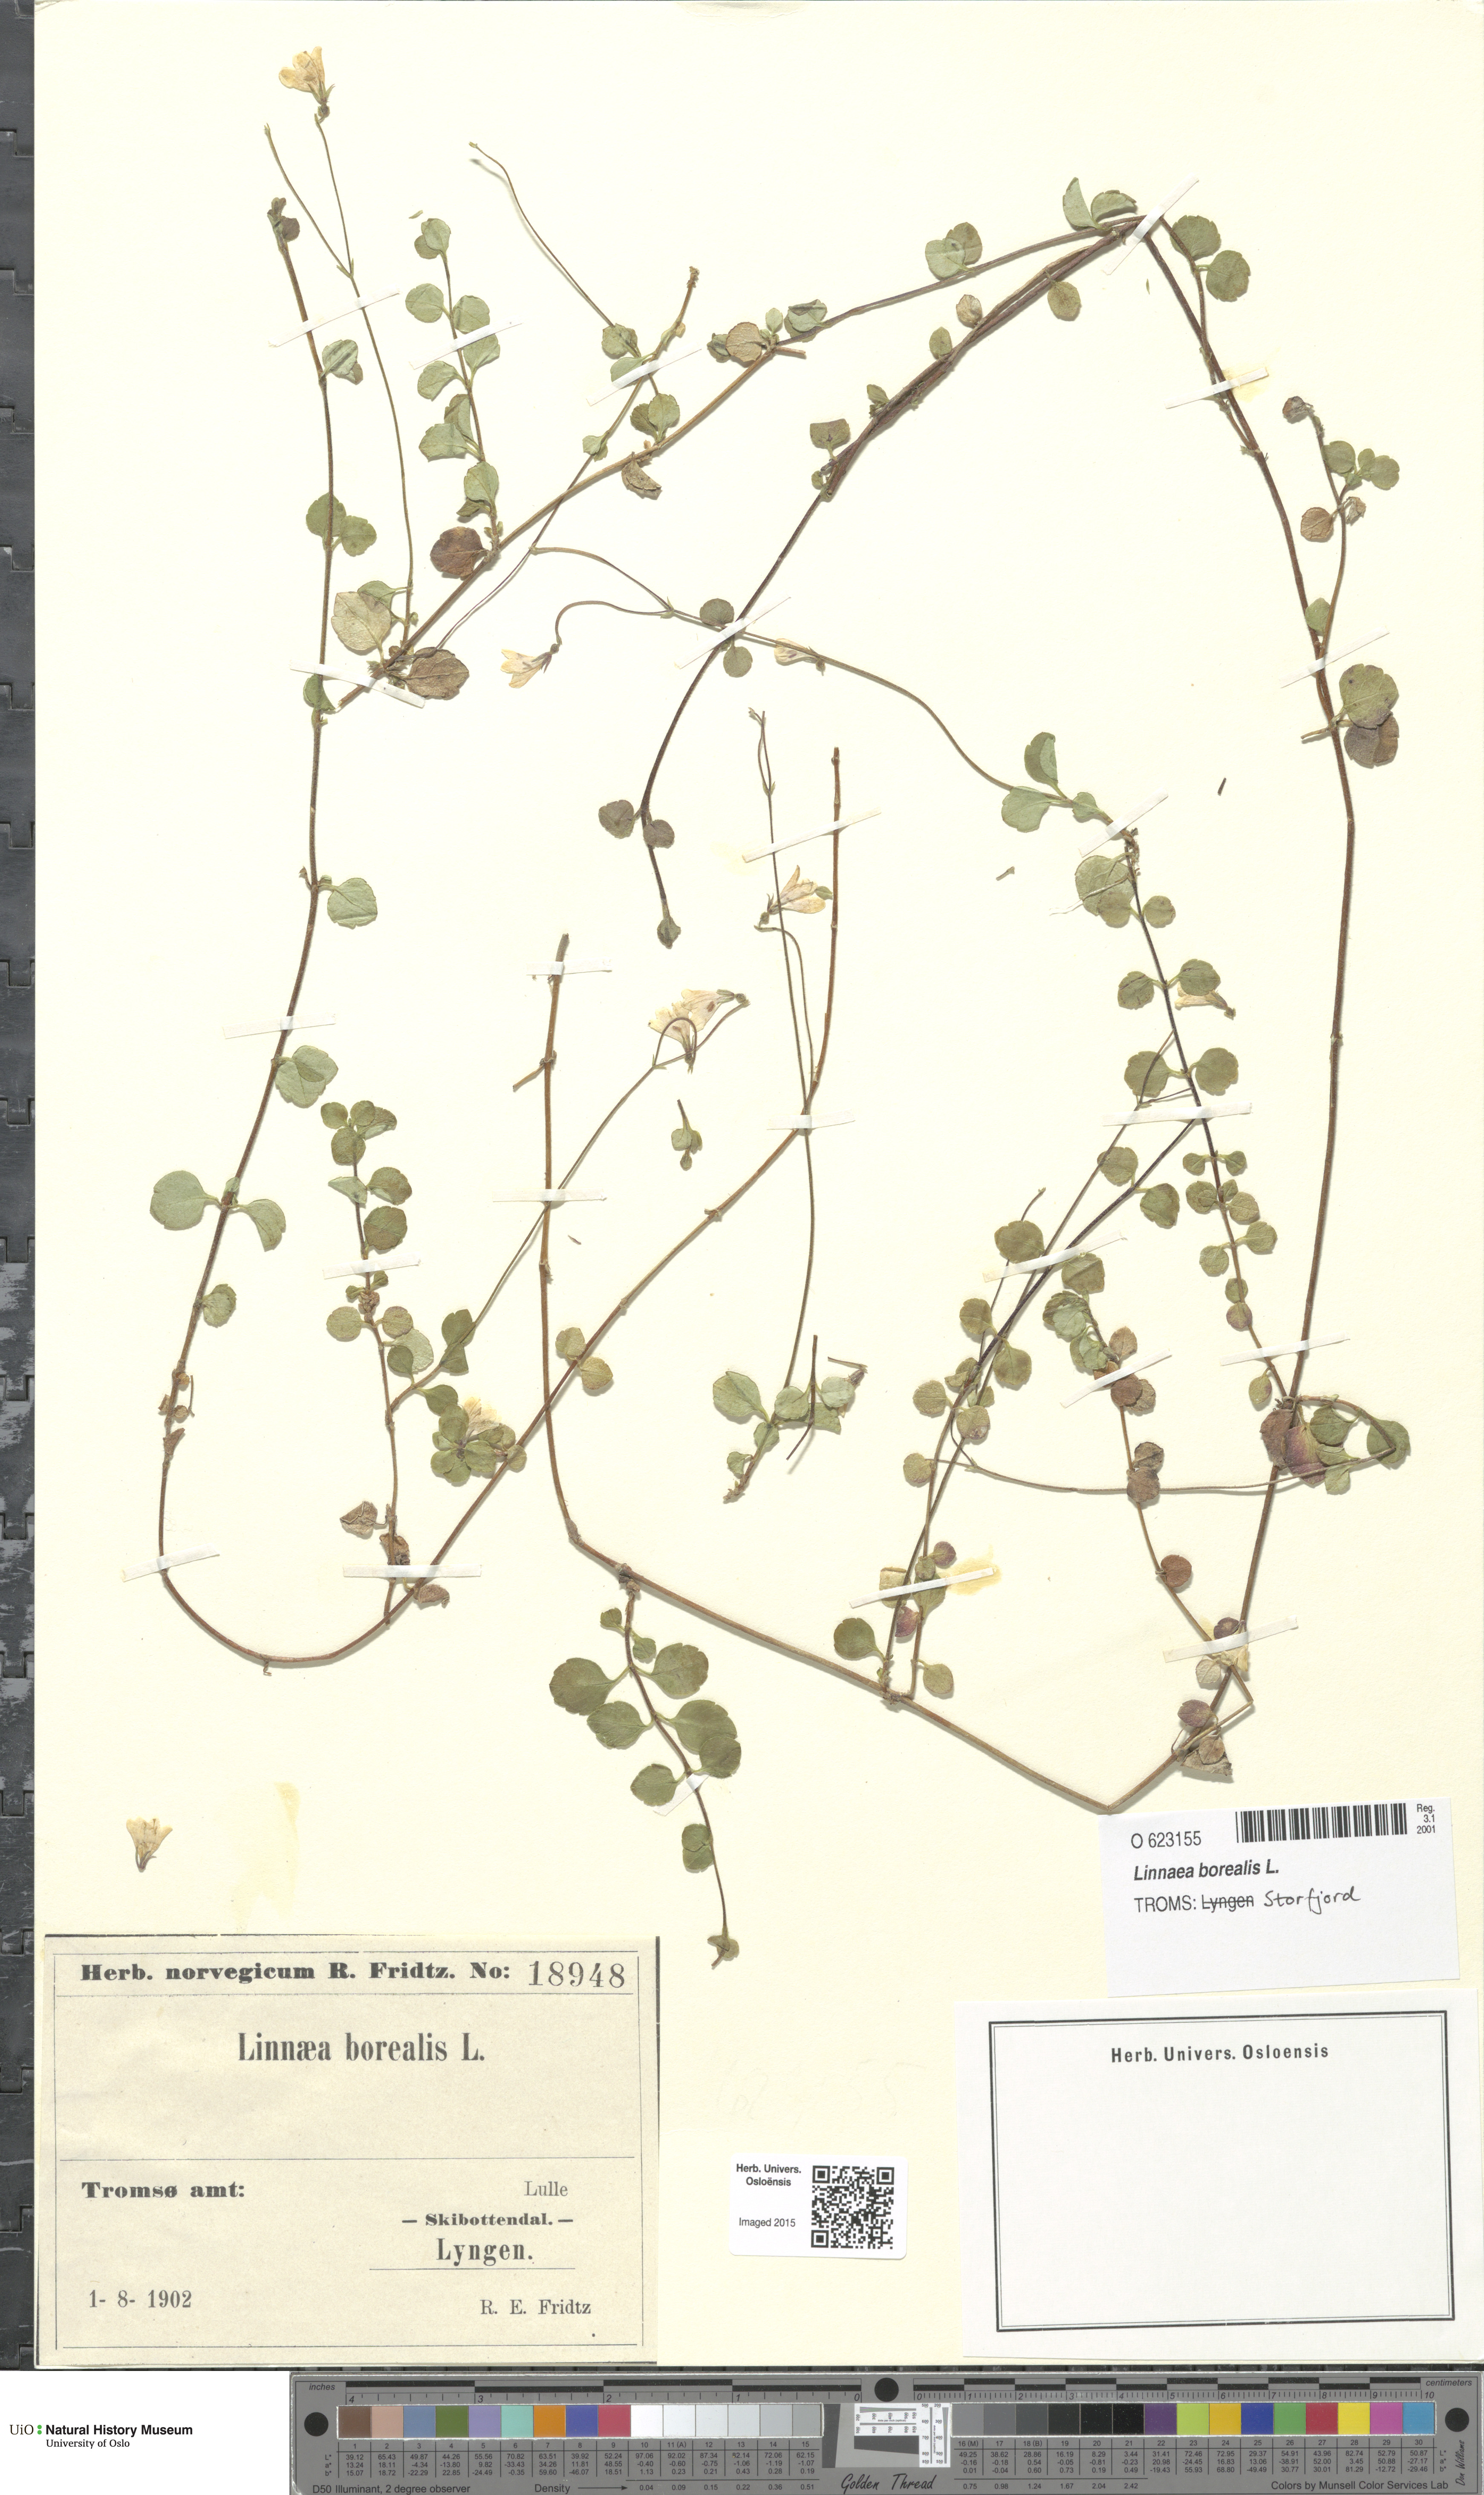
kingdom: Plantae
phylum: Tracheophyta
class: Magnoliopsida
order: Dipsacales
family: Caprifoliaceae
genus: Linnaea
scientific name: Linnaea borealis
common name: Twinflower
